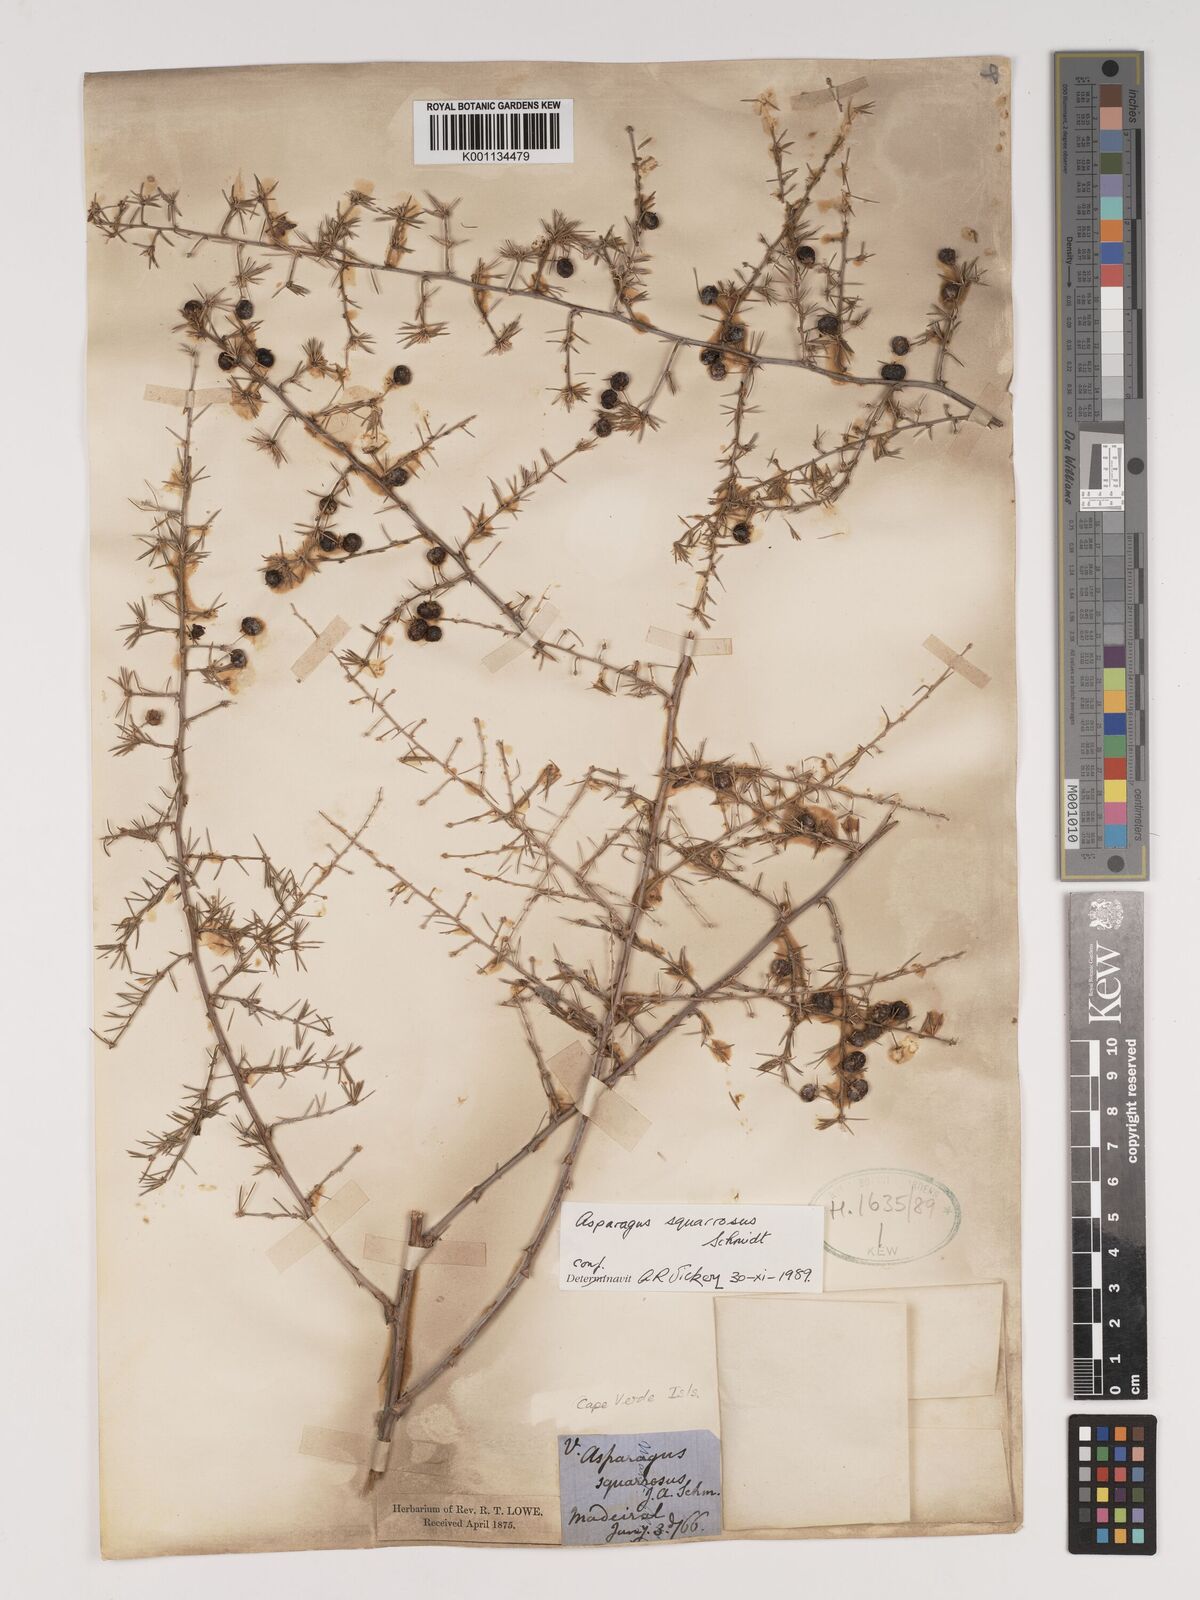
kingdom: Plantae
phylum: Tracheophyta
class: Liliopsida
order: Asparagales
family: Asparagaceae
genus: Asparagus
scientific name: Asparagus squarrosus
